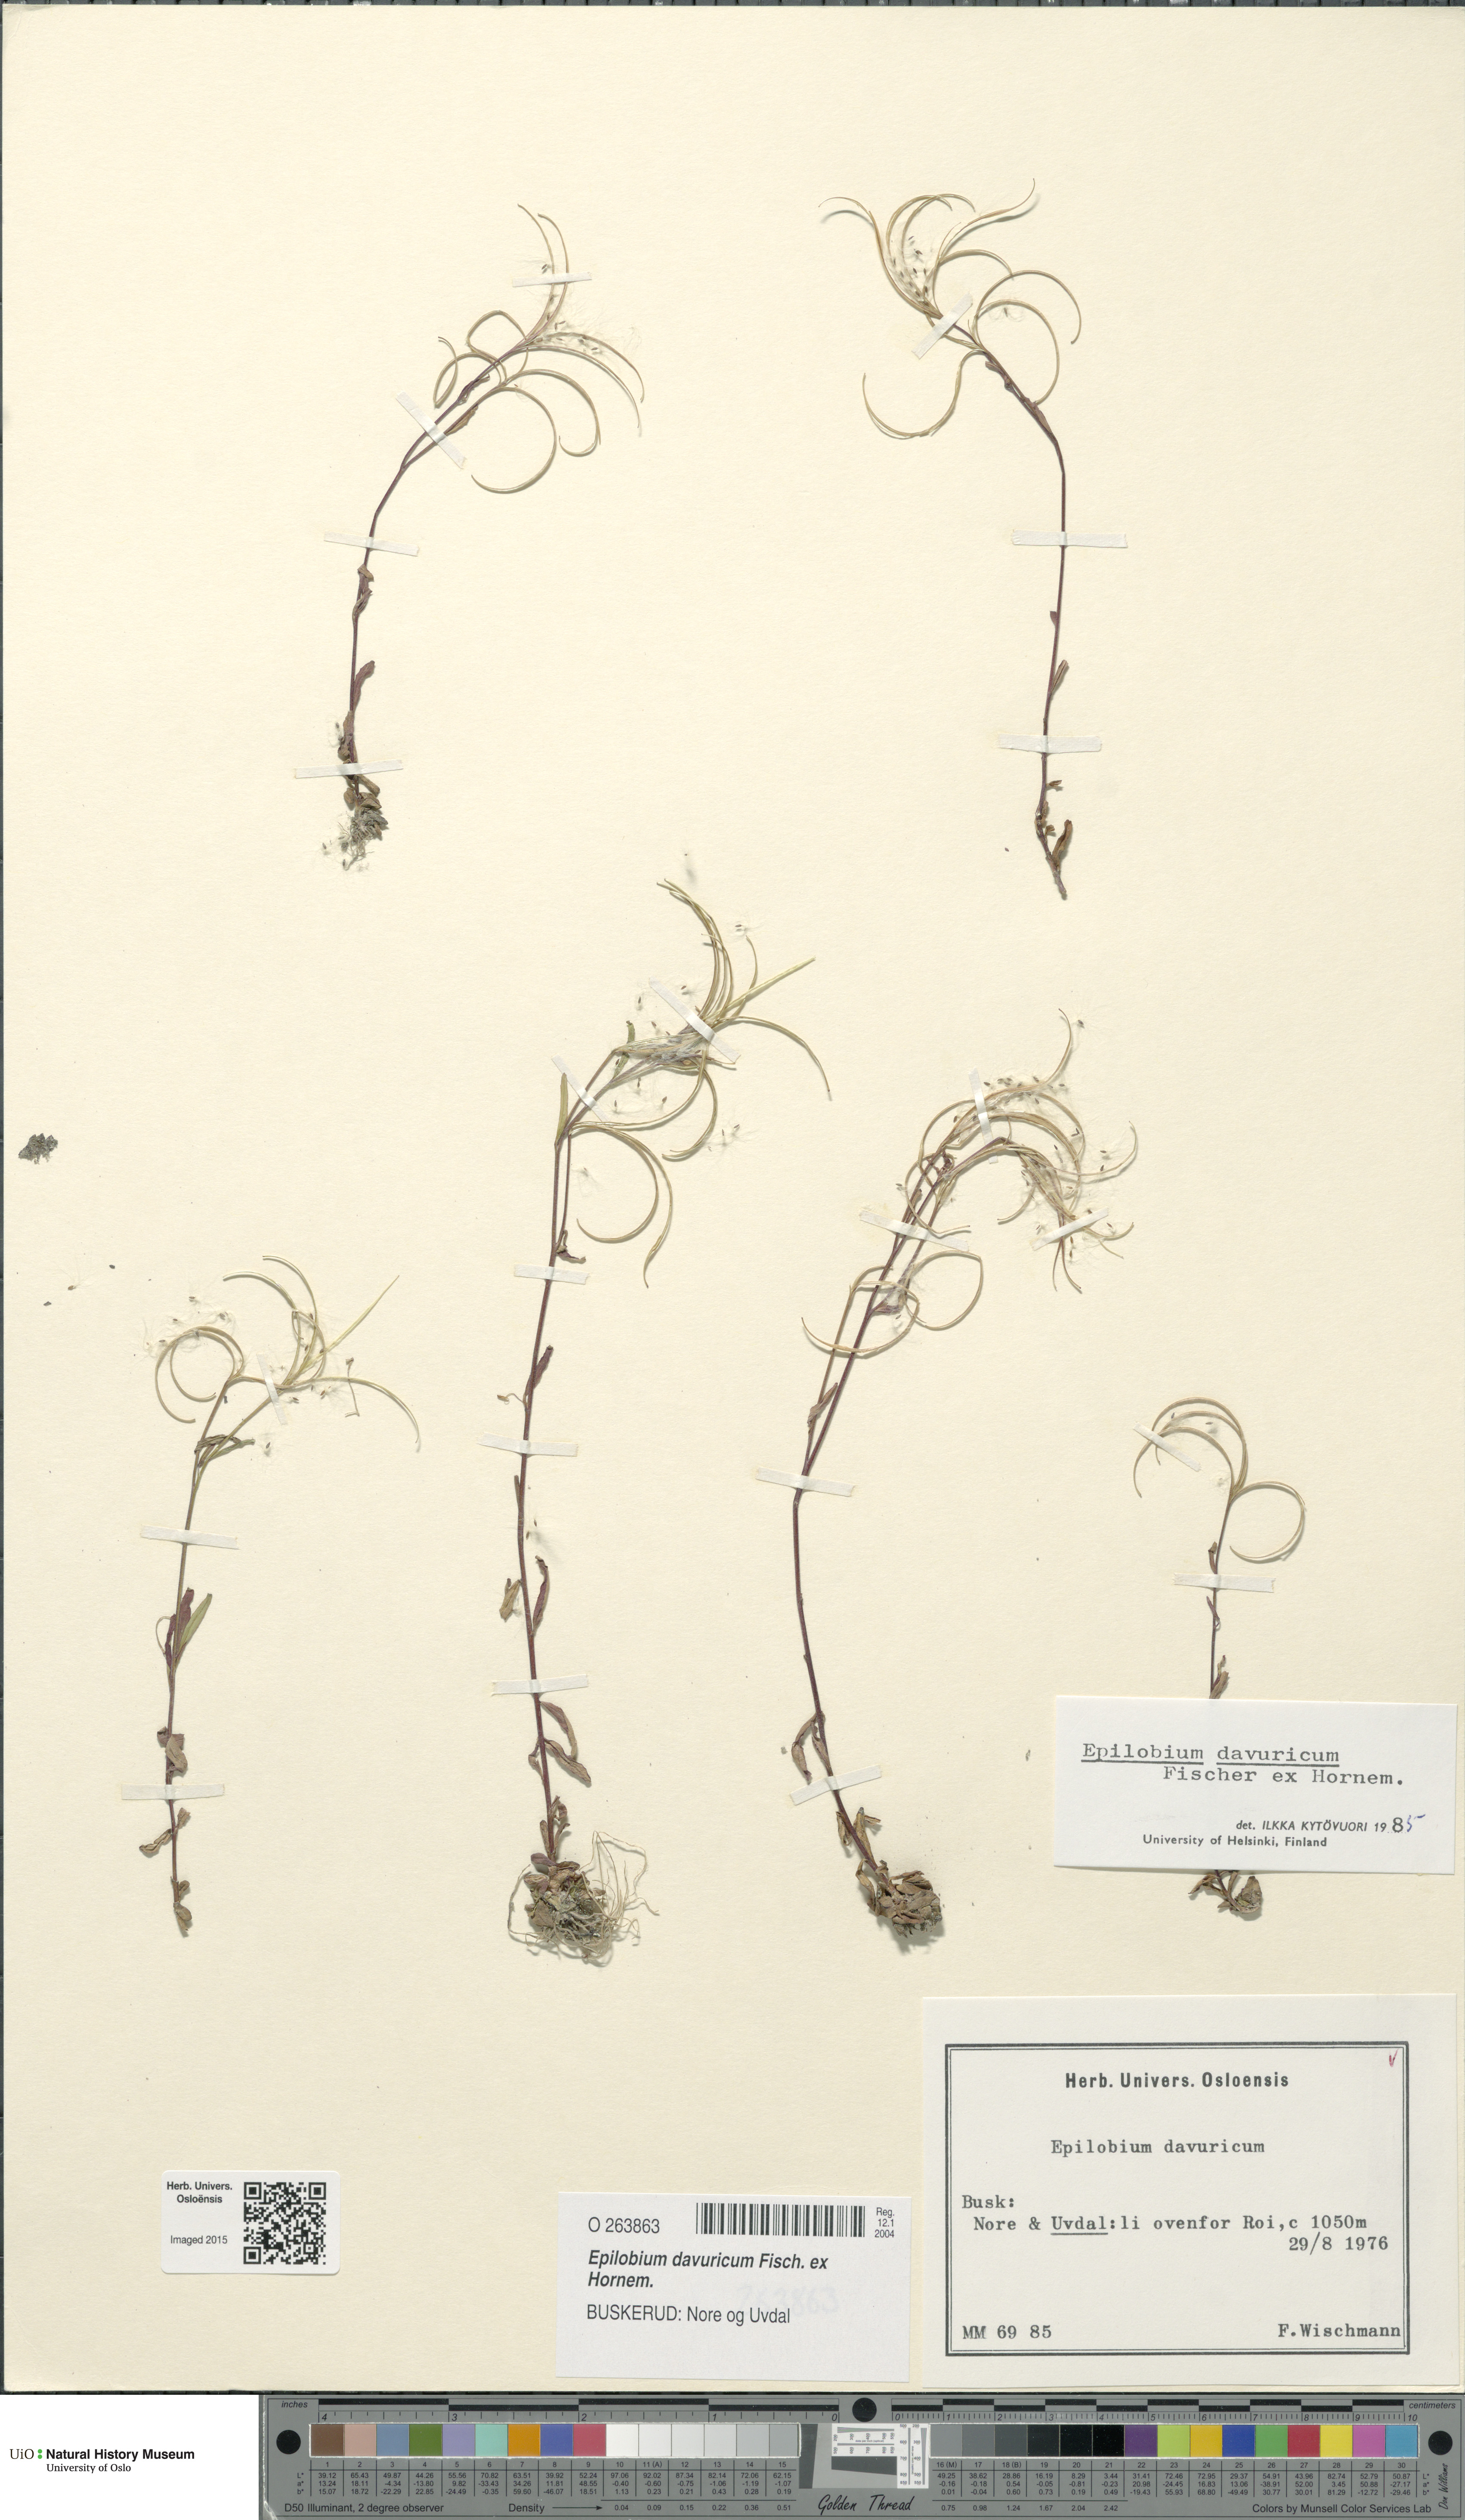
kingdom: Plantae
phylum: Tracheophyta
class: Magnoliopsida
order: Myrtales
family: Onagraceae
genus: Epilobium
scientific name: Epilobium davuricum
